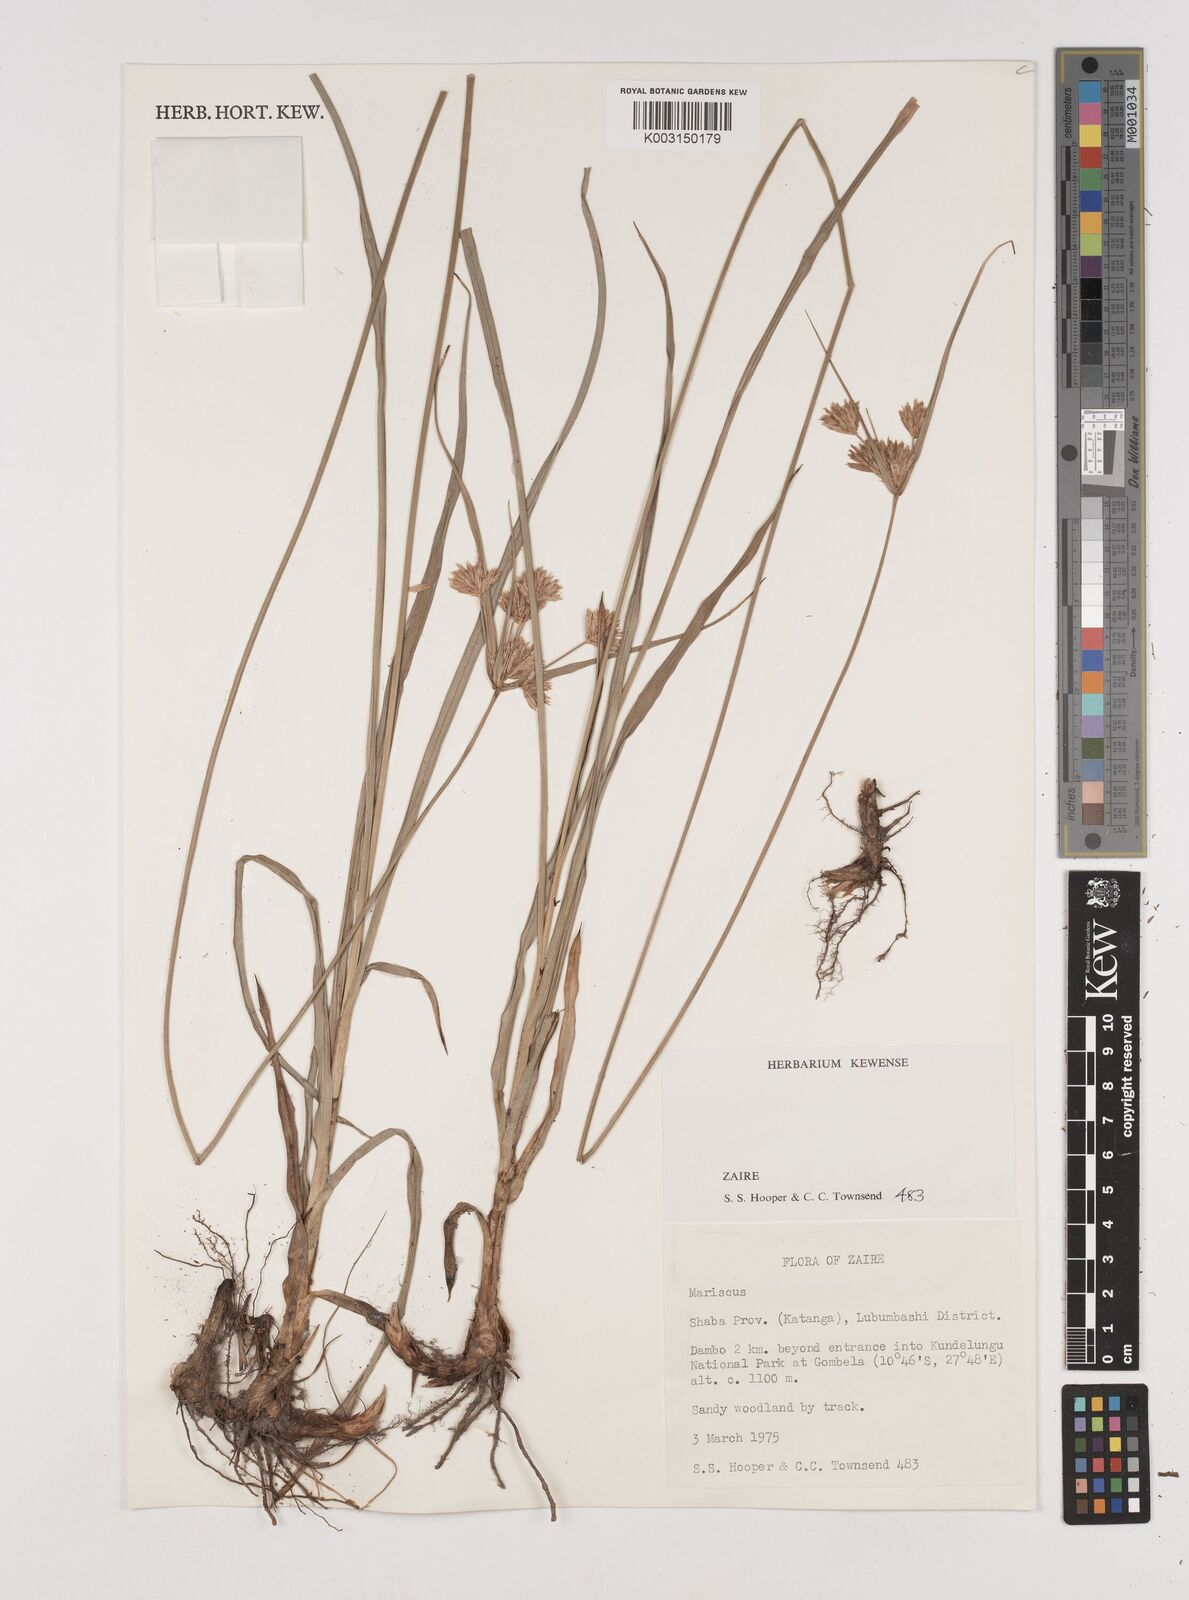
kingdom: Plantae
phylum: Tracheophyta
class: Liliopsida
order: Poales
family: Cyperaceae
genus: Cyperus
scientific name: Cyperus
